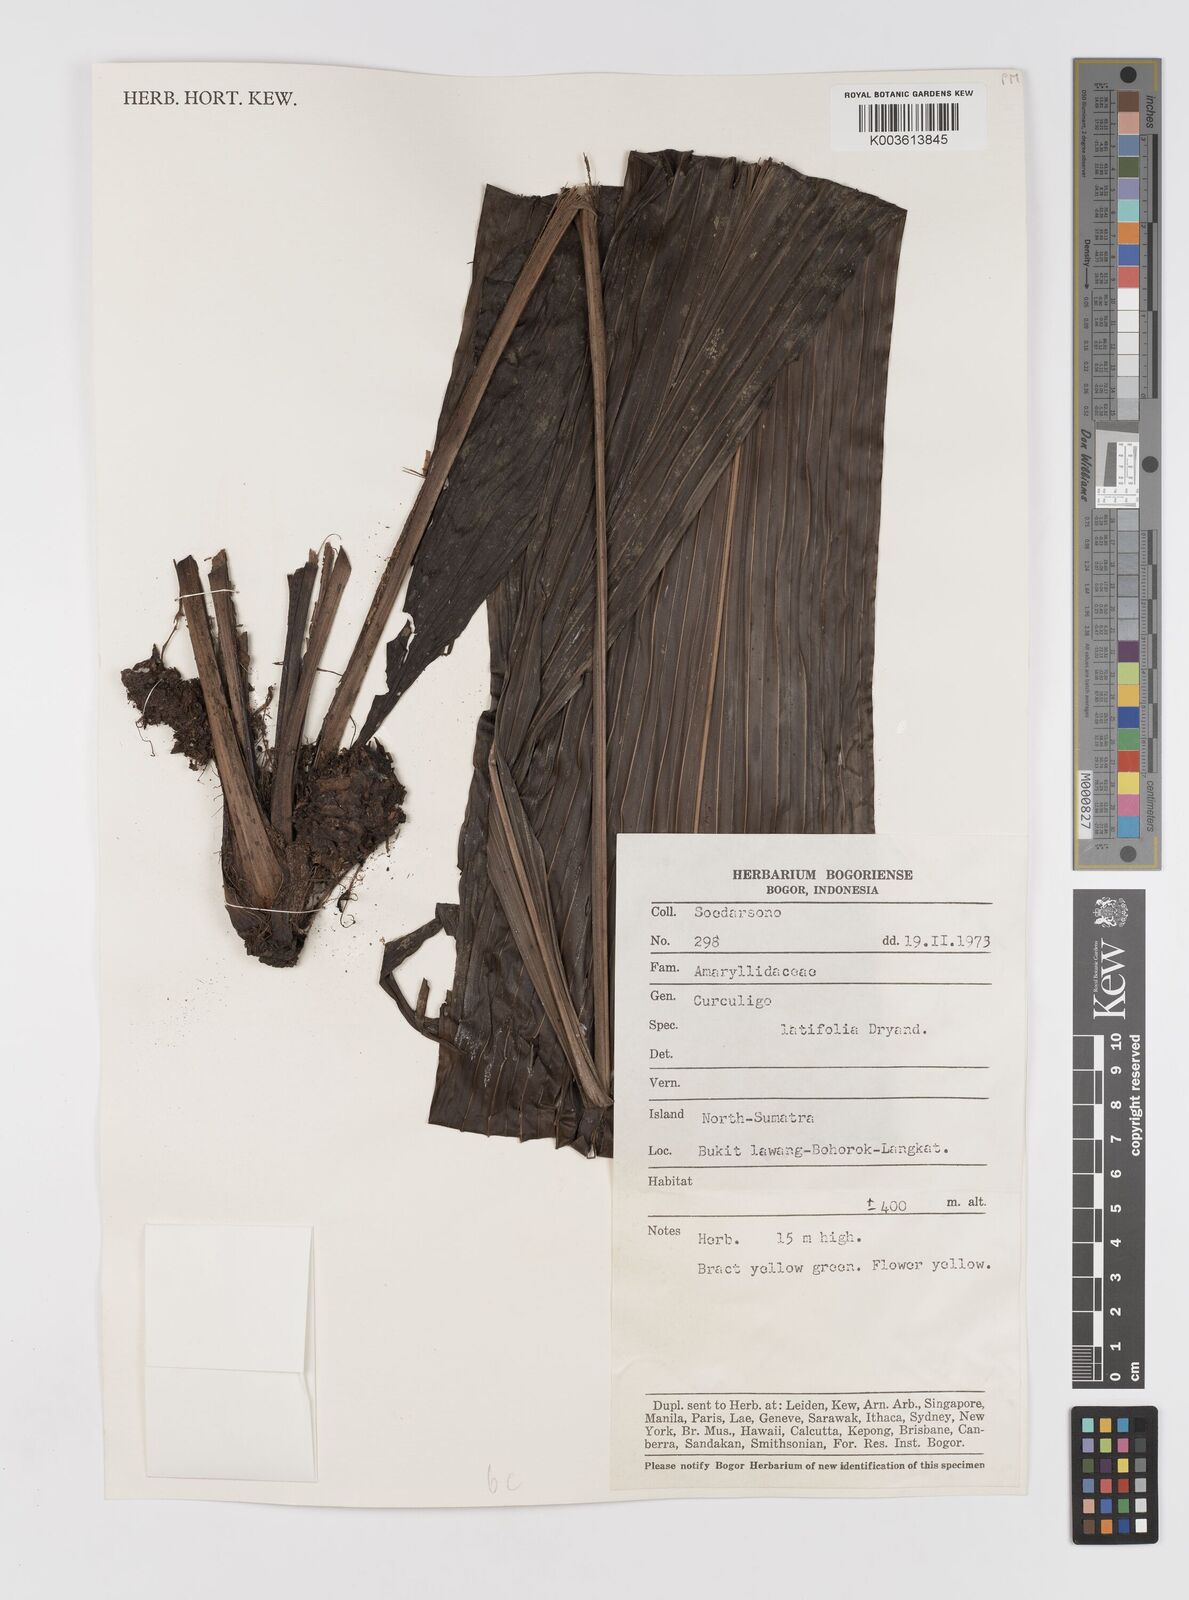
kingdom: Plantae
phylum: Tracheophyta
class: Liliopsida
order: Asparagales
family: Hypoxidaceae
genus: Curculigo
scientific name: Curculigo latifolia
